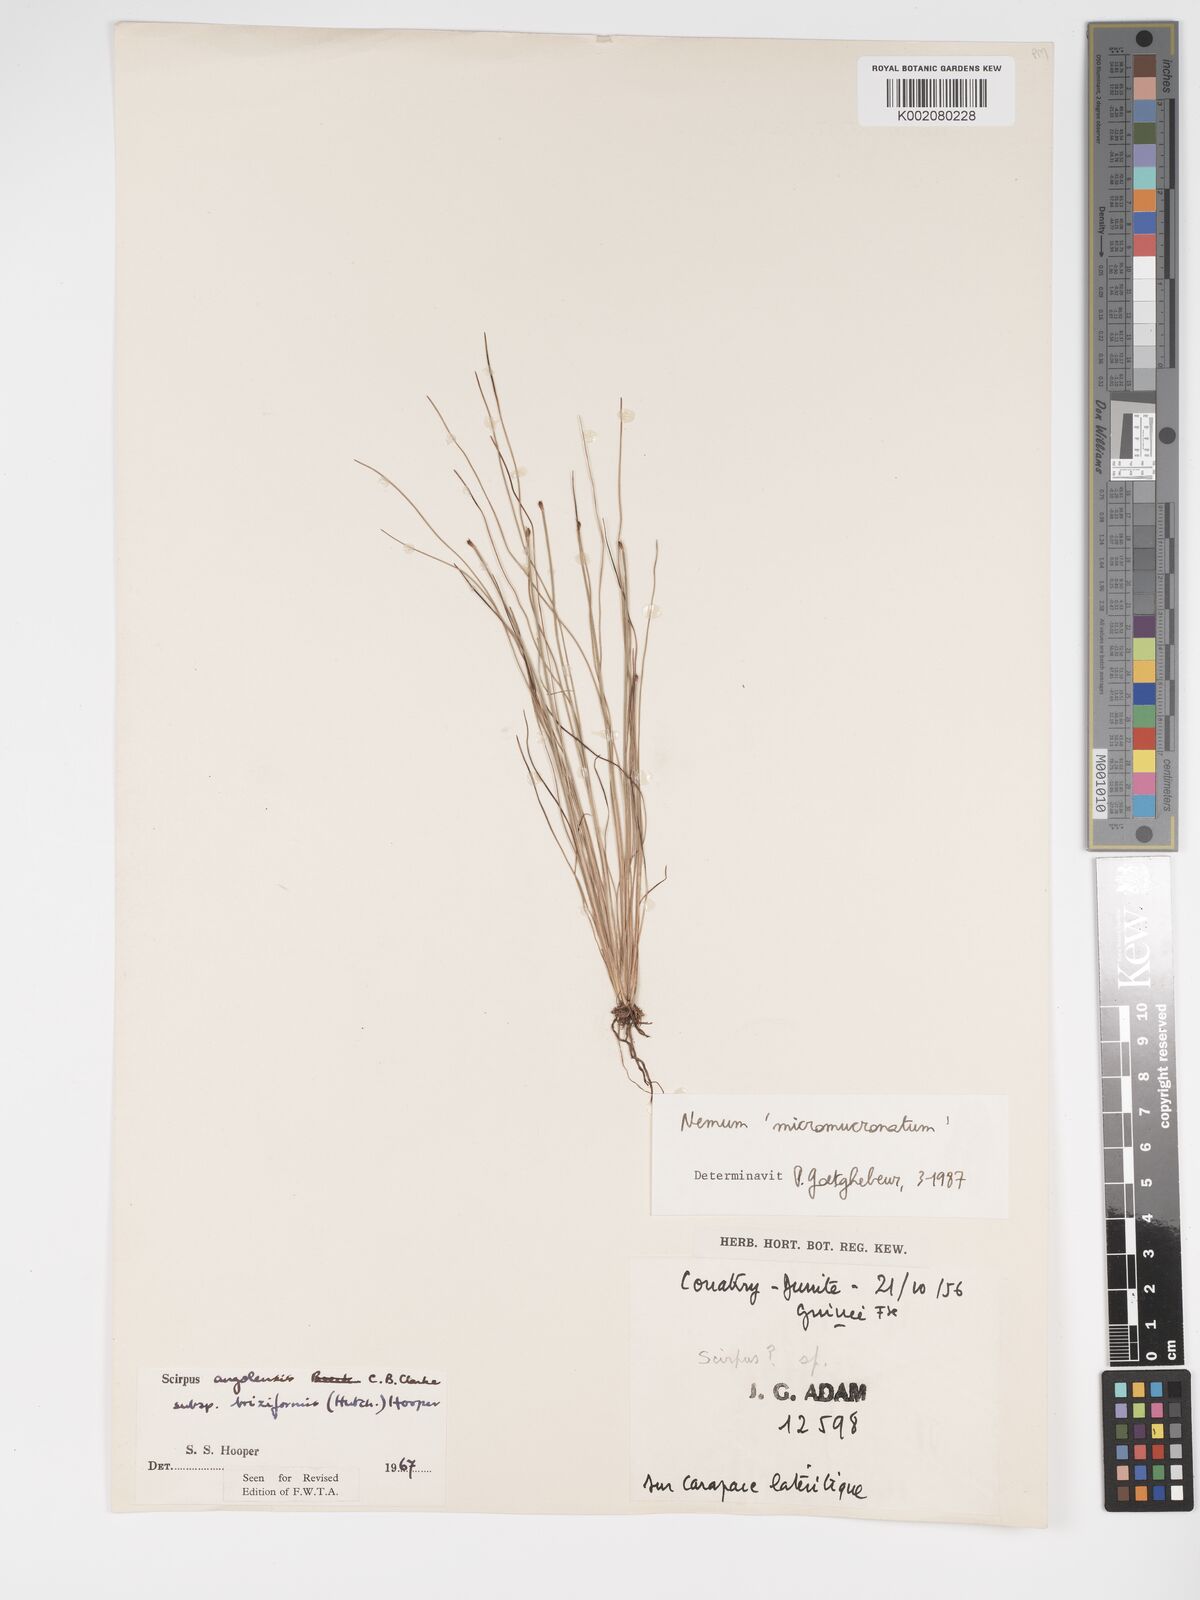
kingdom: Plantae
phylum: Tracheophyta
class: Liliopsida
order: Poales
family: Cyperaceae
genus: Bulbostylis
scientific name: Bulbostylis briziformis
